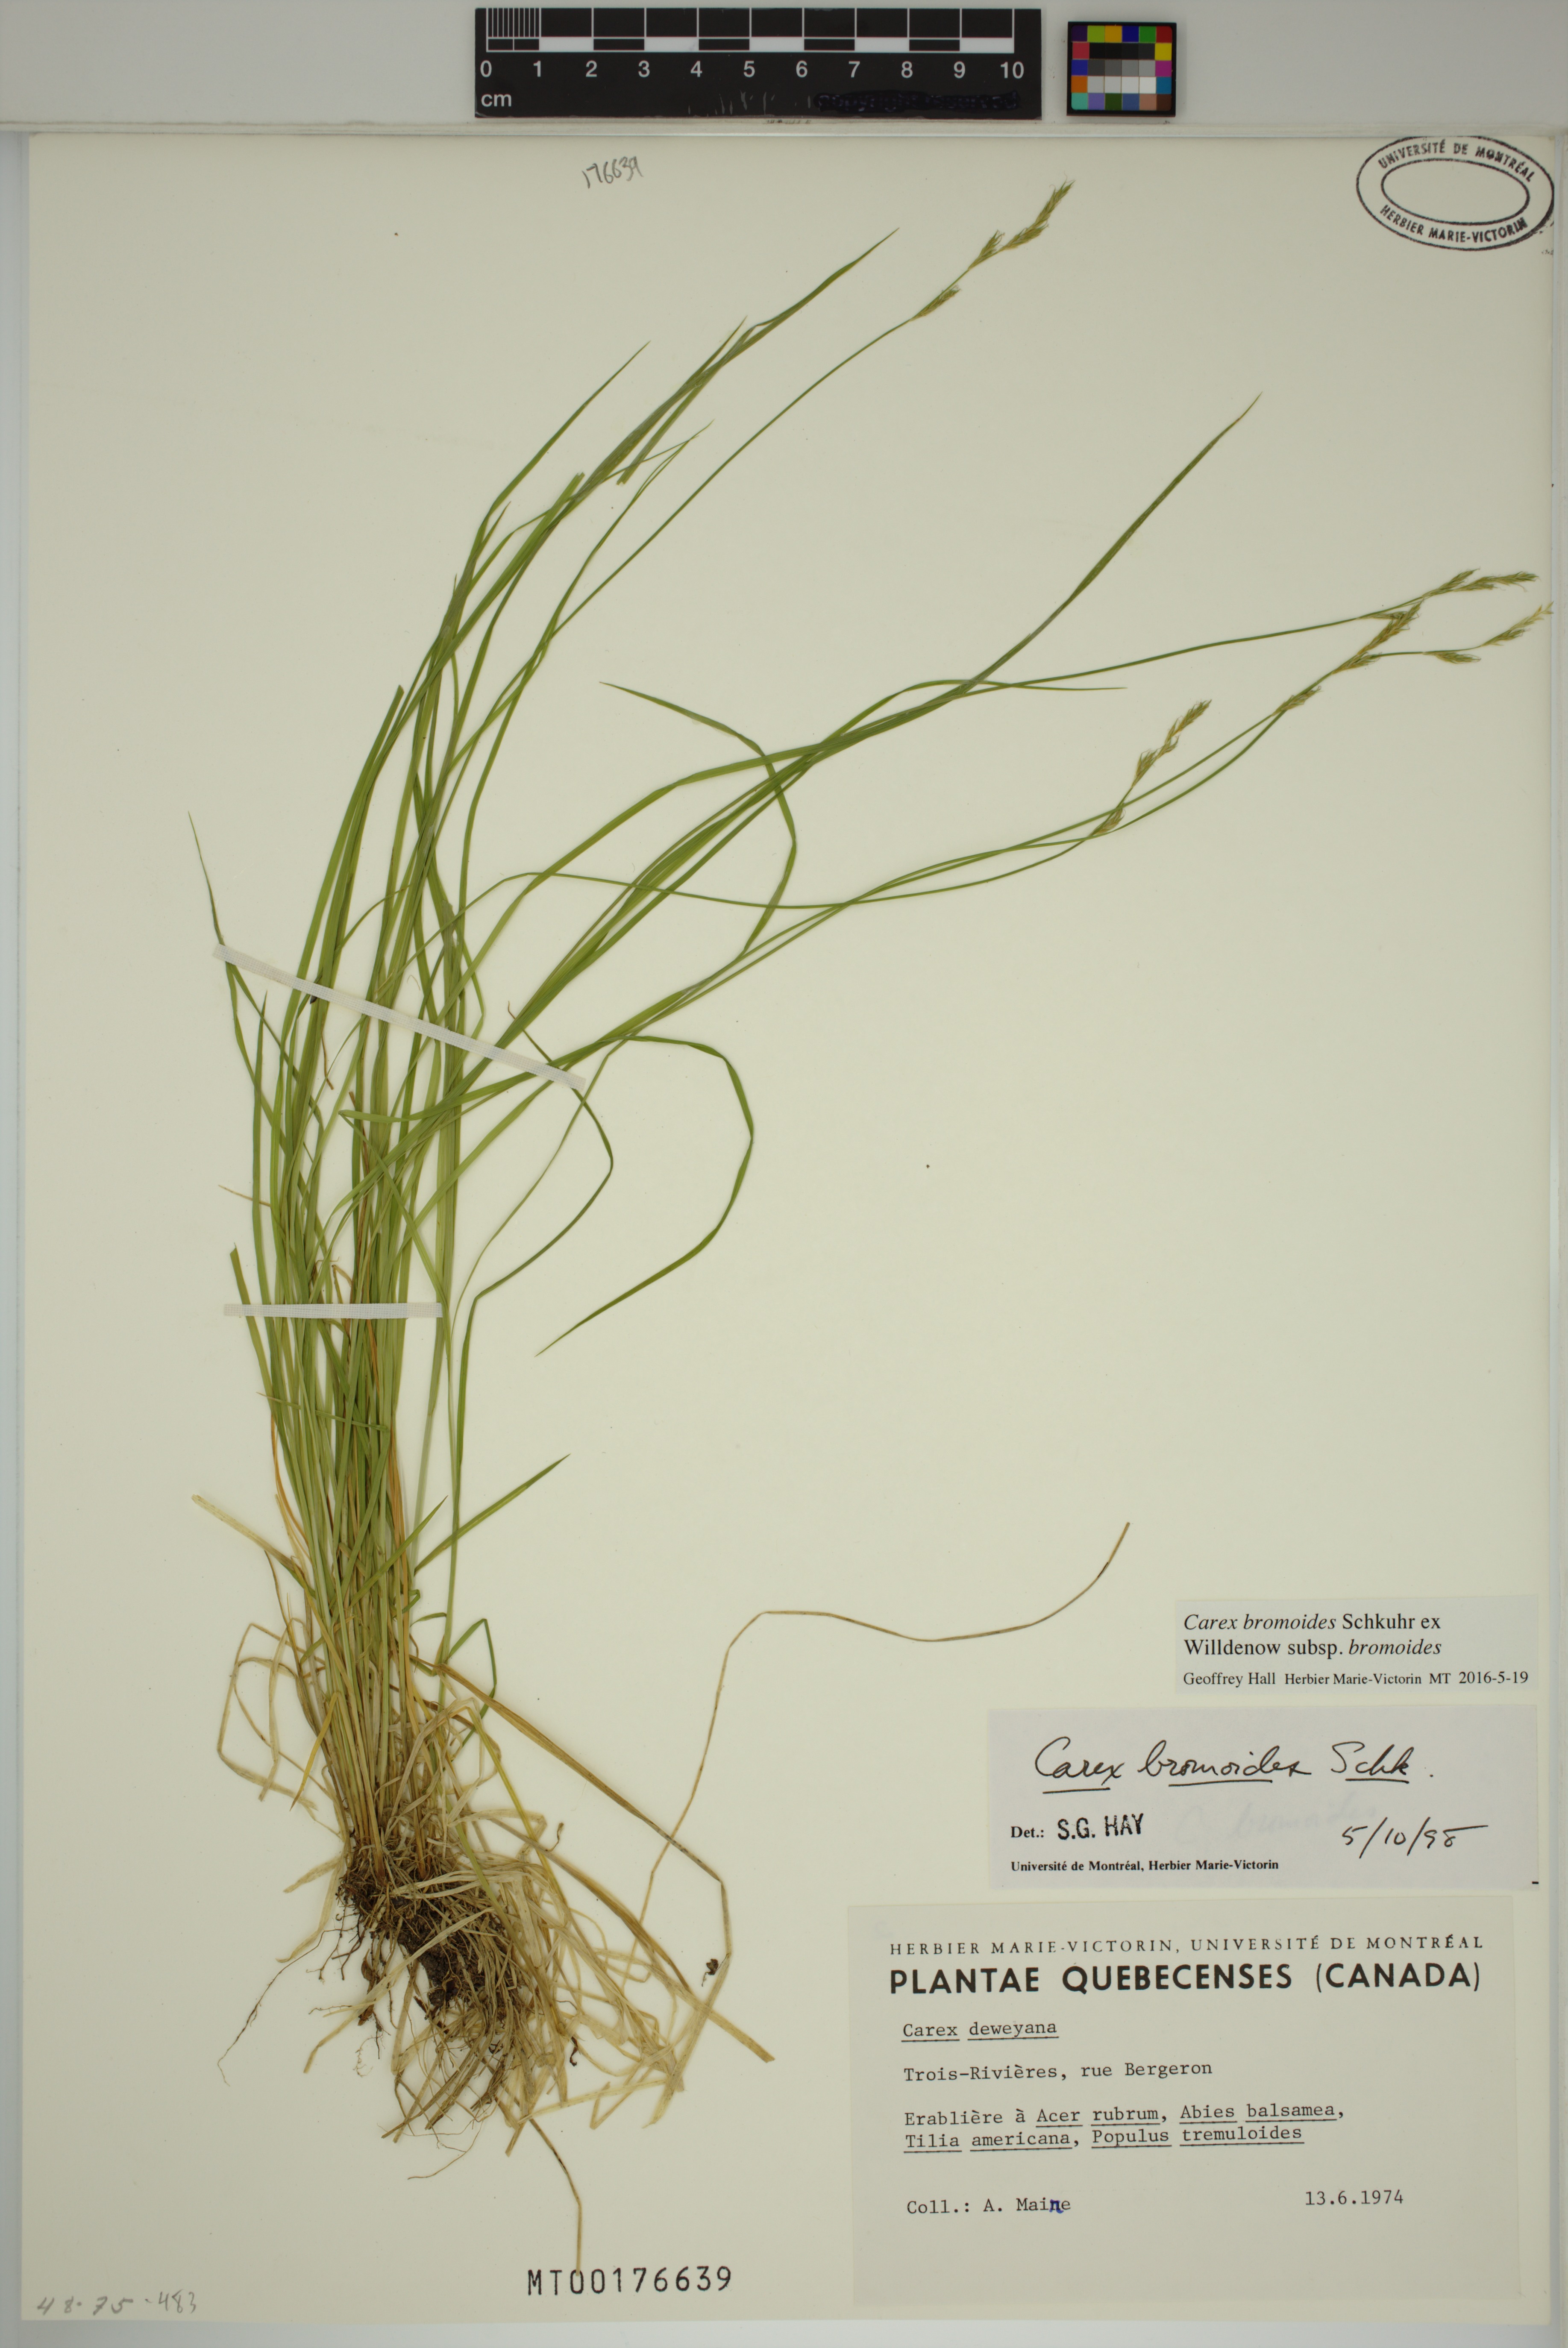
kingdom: Plantae
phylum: Tracheophyta
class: Liliopsida
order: Poales
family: Cyperaceae
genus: Carex
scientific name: Carex bromoides
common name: Brome hummock sedge
